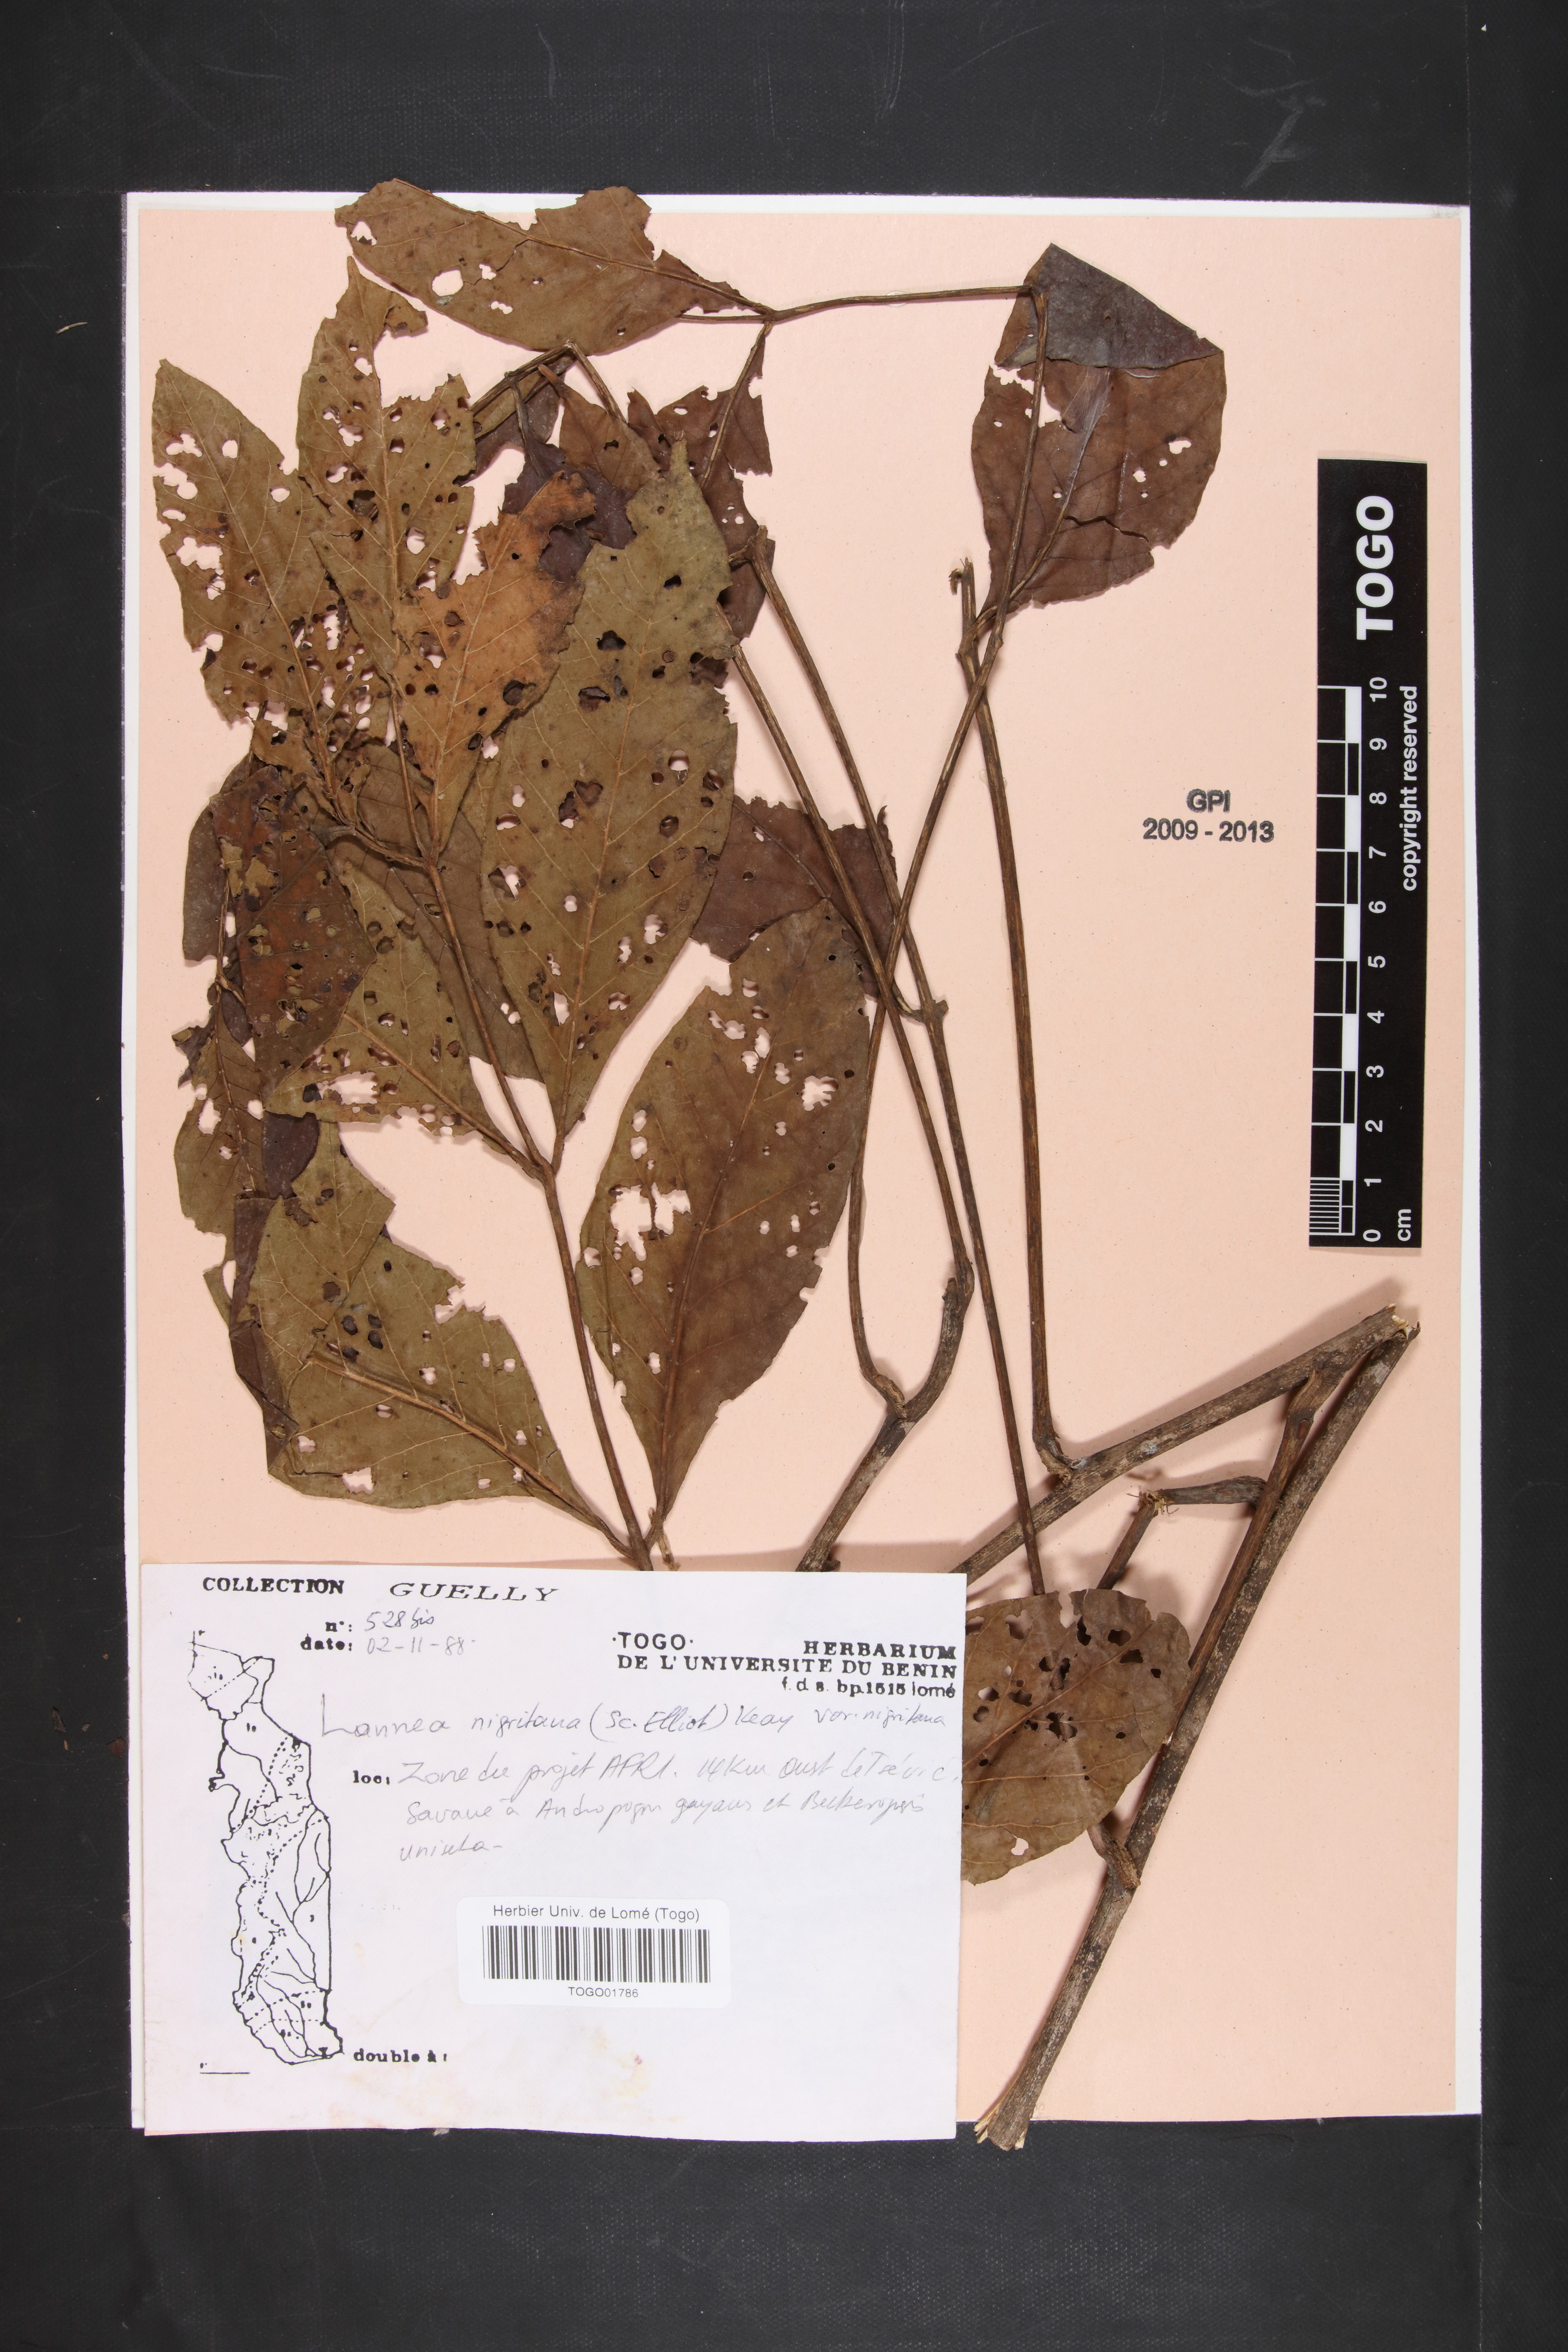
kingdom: Plantae
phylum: Tracheophyta
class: Magnoliopsida
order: Sapindales
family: Anacardiaceae
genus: Lannea
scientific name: Lannea nigritana
